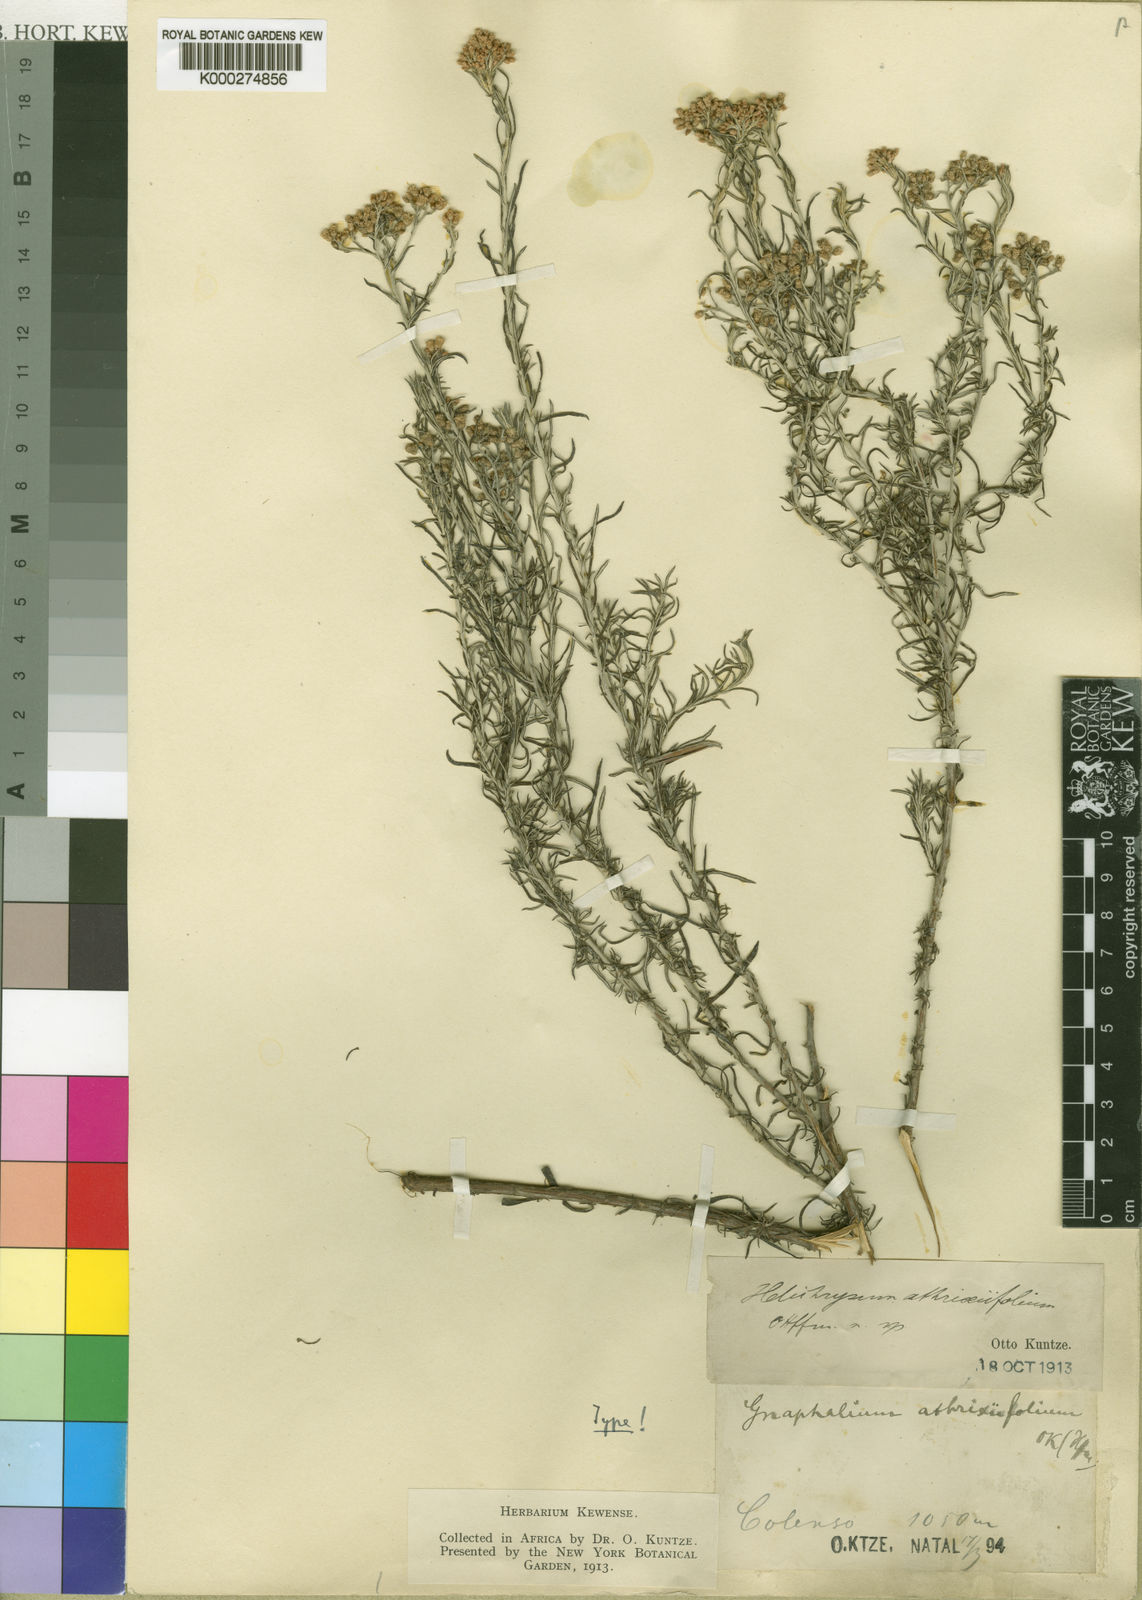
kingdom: Plantae
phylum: Tracheophyta
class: Magnoliopsida
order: Asterales
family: Asteraceae
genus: Helichrysum
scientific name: Helichrysum athrixiifolium
